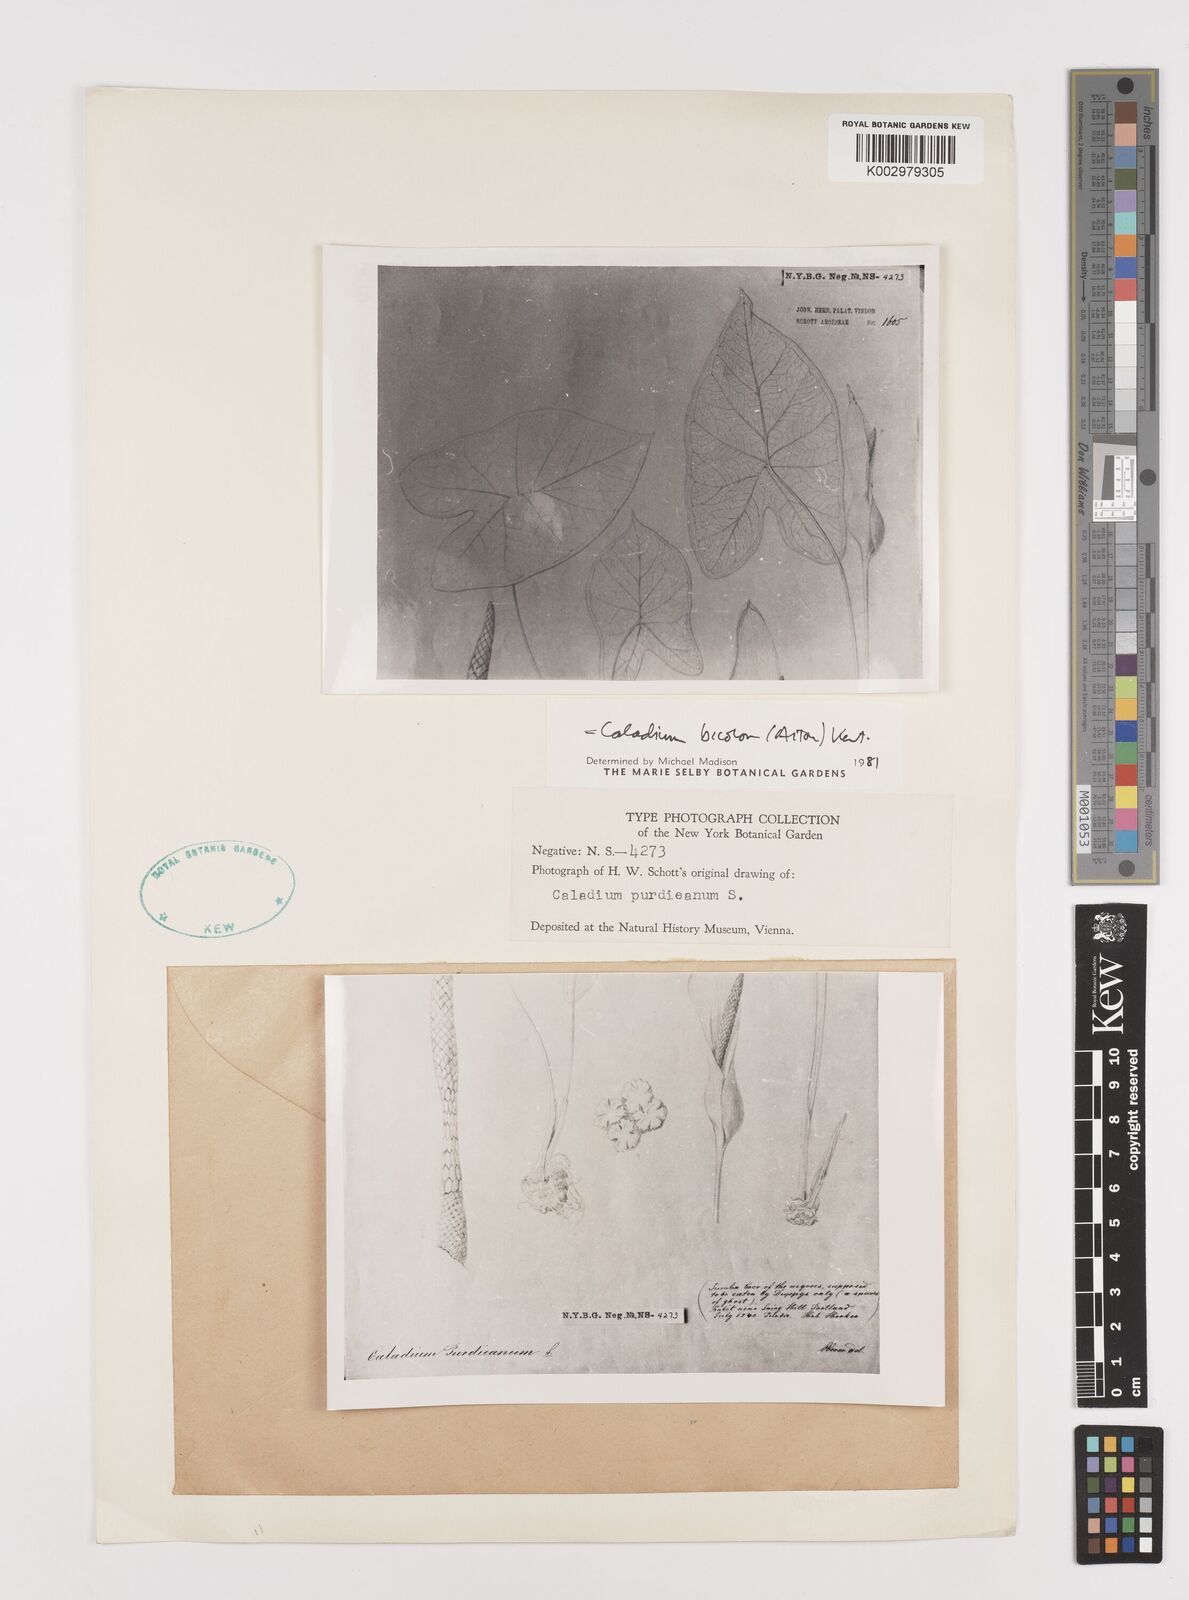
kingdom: Plantae
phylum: Tracheophyta
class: Liliopsida
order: Alismatales
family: Araceae
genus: Caladium
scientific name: Caladium bicolor
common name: Artist's pallet
